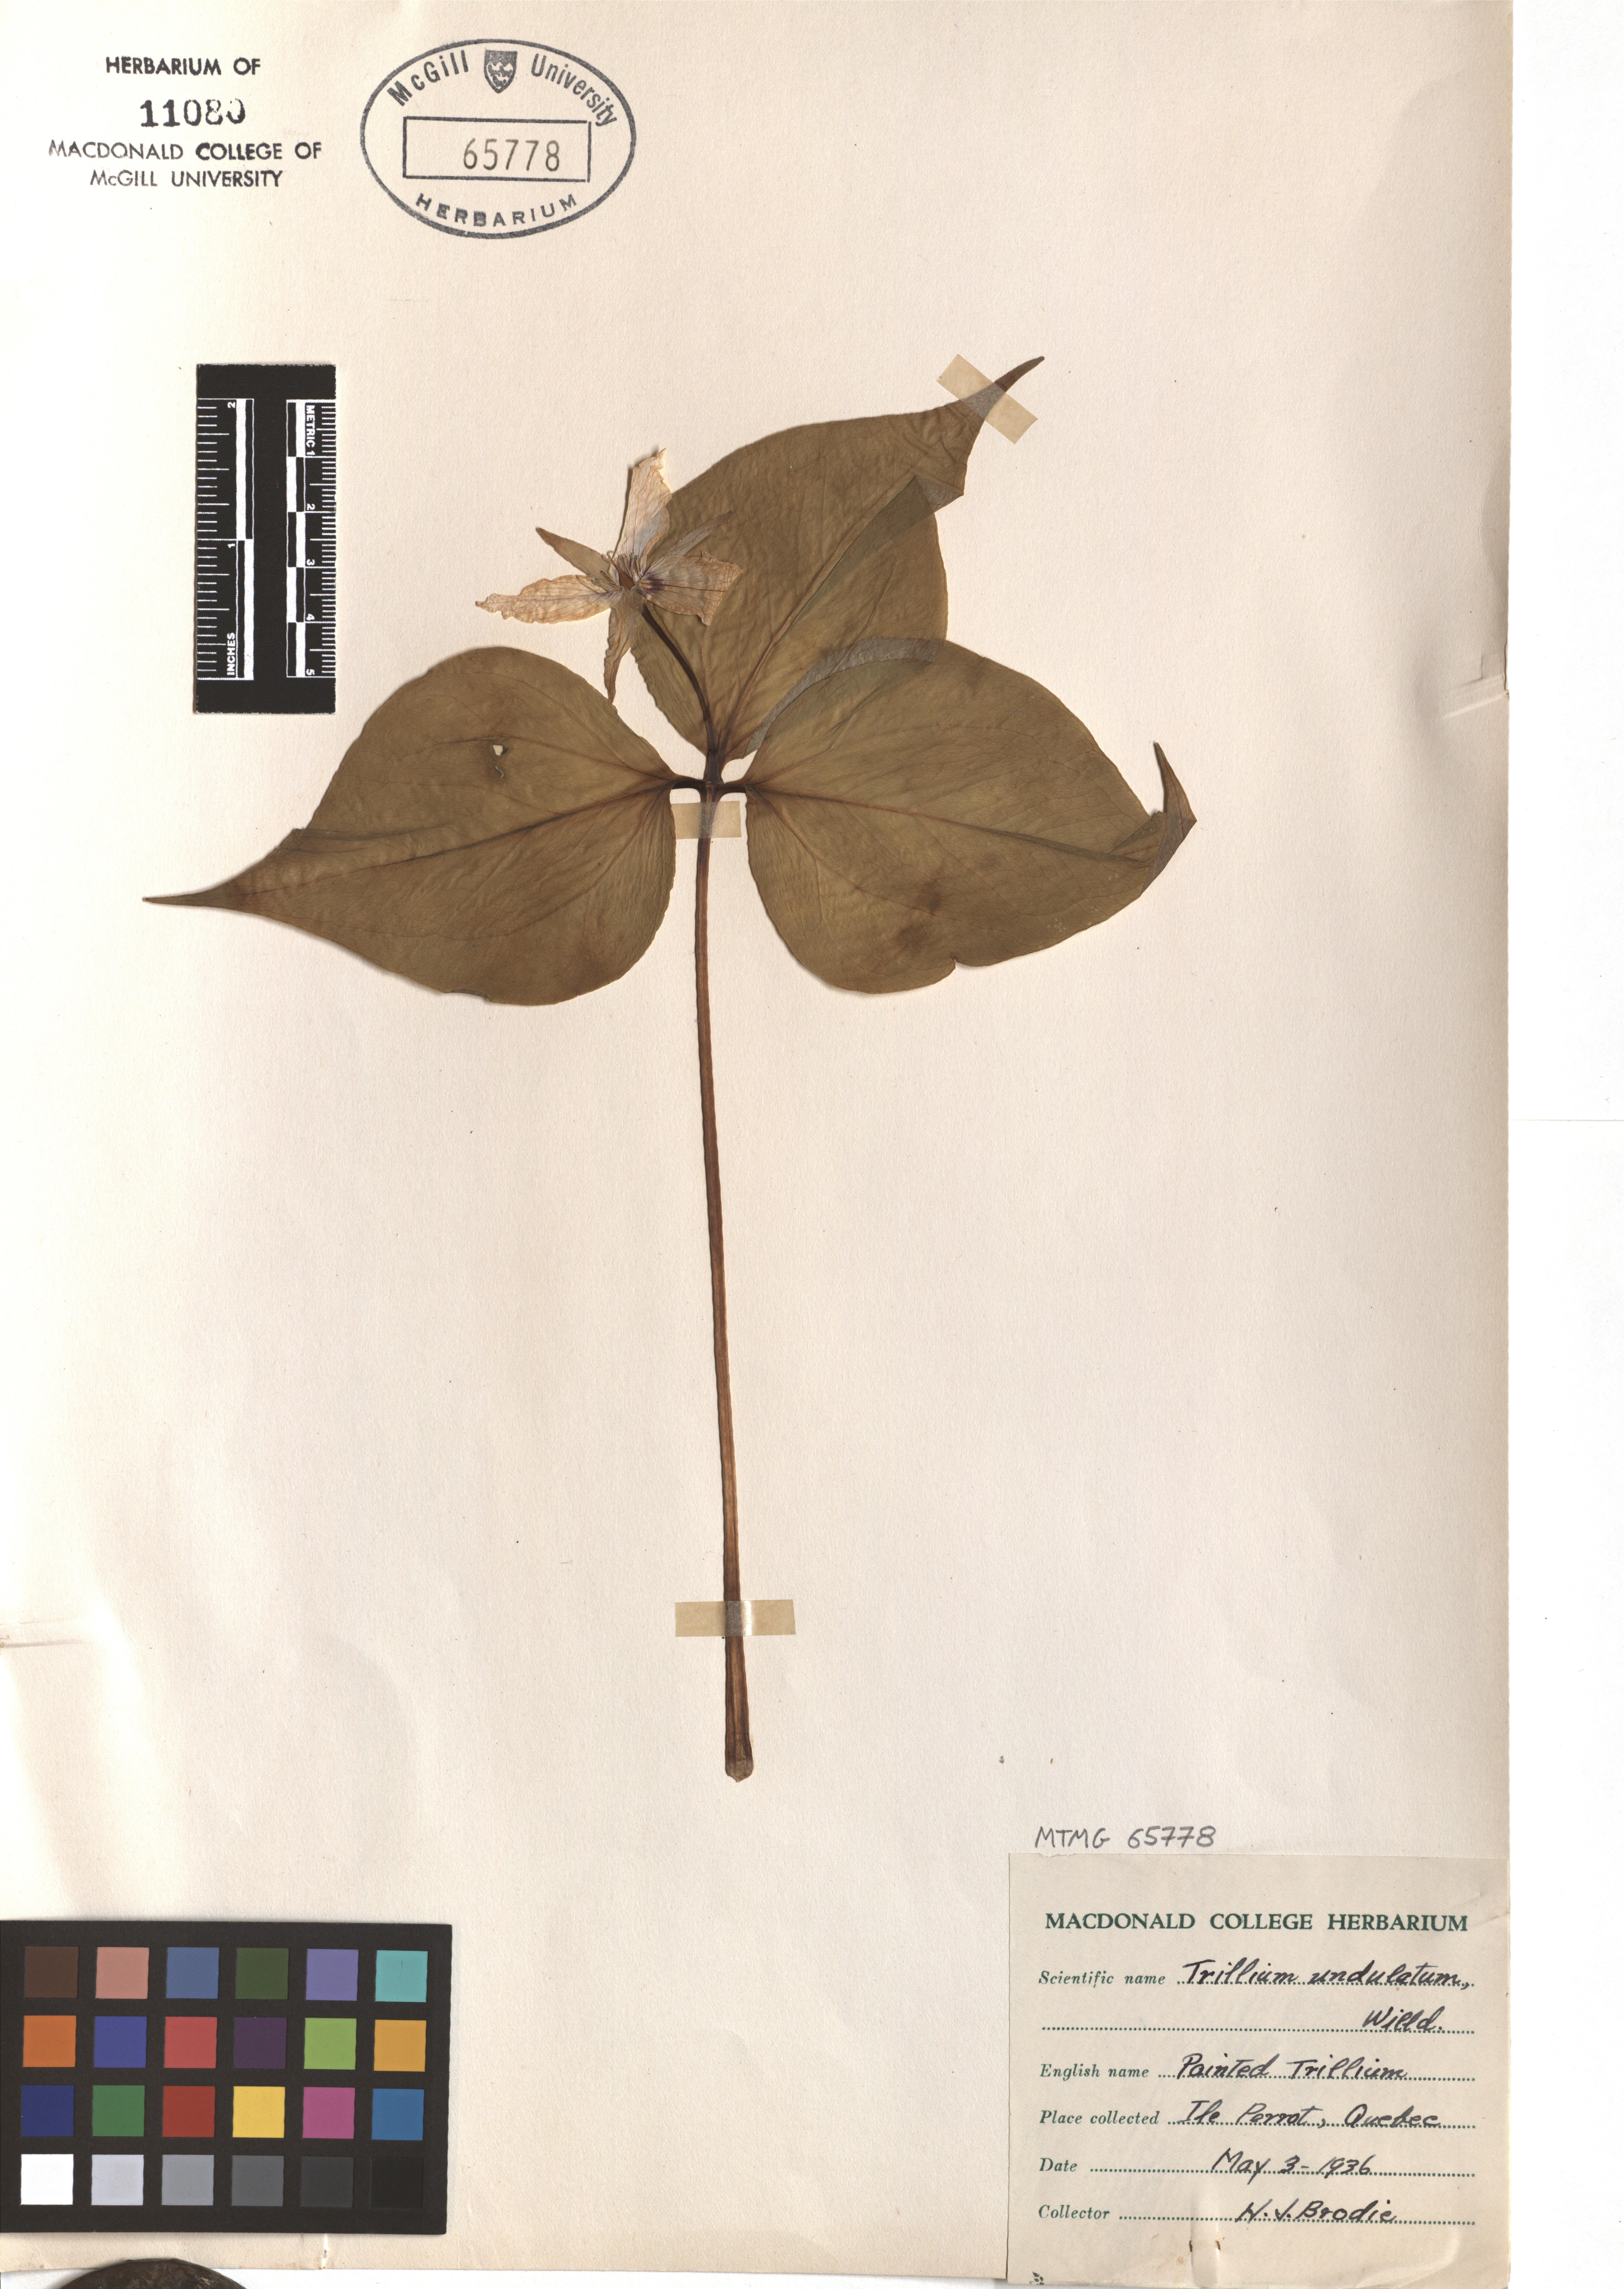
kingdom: Plantae
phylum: Tracheophyta
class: Liliopsida
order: Liliales
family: Melanthiaceae
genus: Trillium
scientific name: Trillium undulatum
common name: Paint trillium
